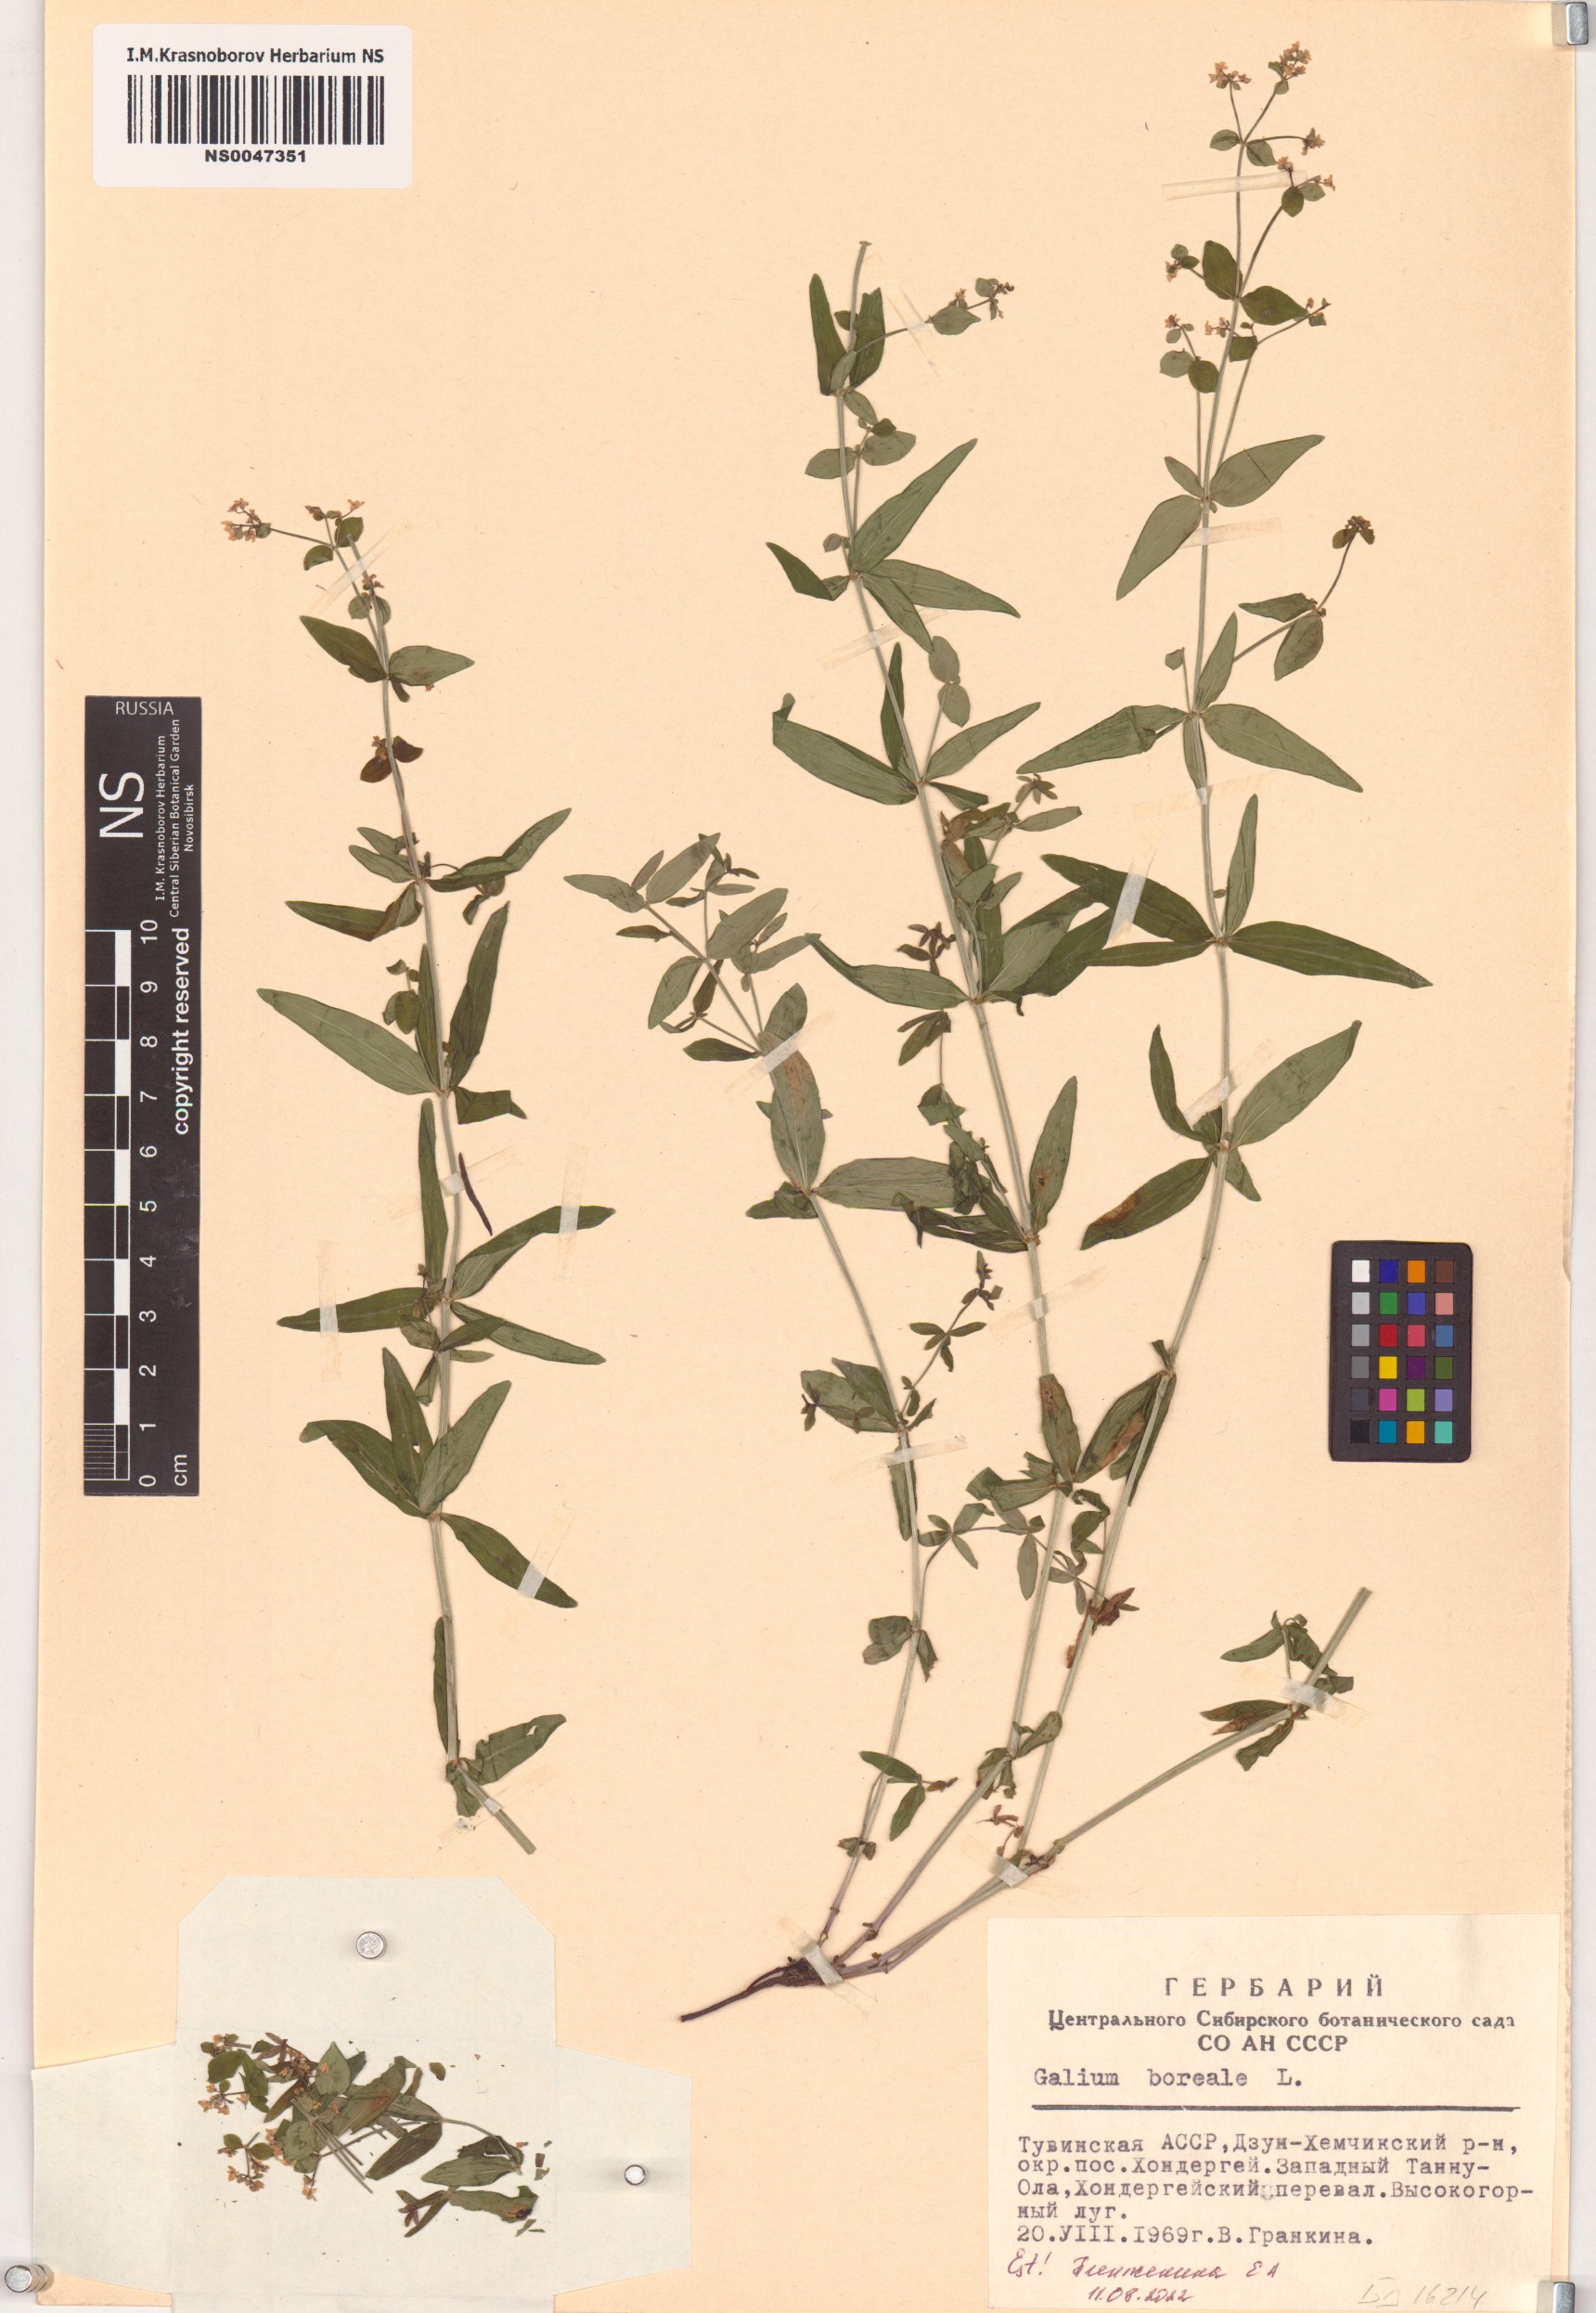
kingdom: Plantae
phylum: Tracheophyta
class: Magnoliopsida
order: Gentianales
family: Rubiaceae
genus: Galium
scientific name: Galium boreale
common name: Northern bedstraw
